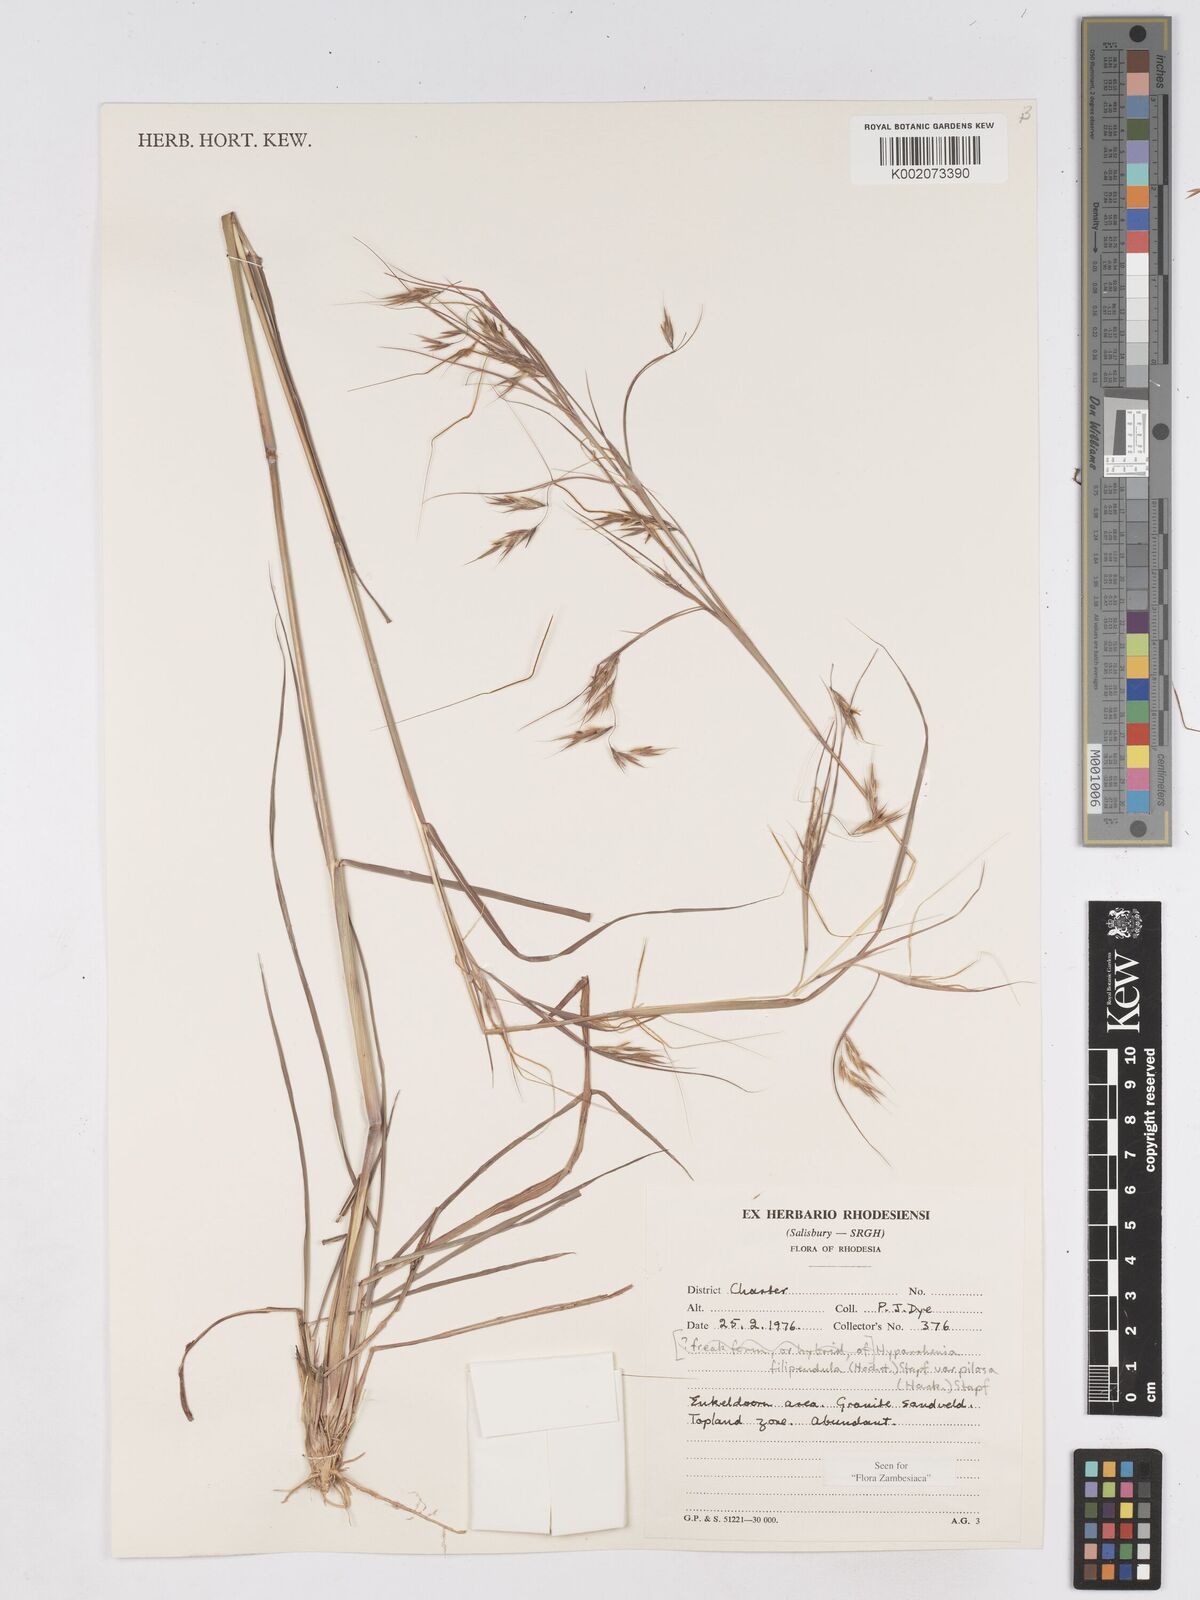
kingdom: Plantae
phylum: Tracheophyta
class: Liliopsida
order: Poales
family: Poaceae
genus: Hyparrhenia
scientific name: Hyparrhenia filipendula
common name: Tambookie grass
